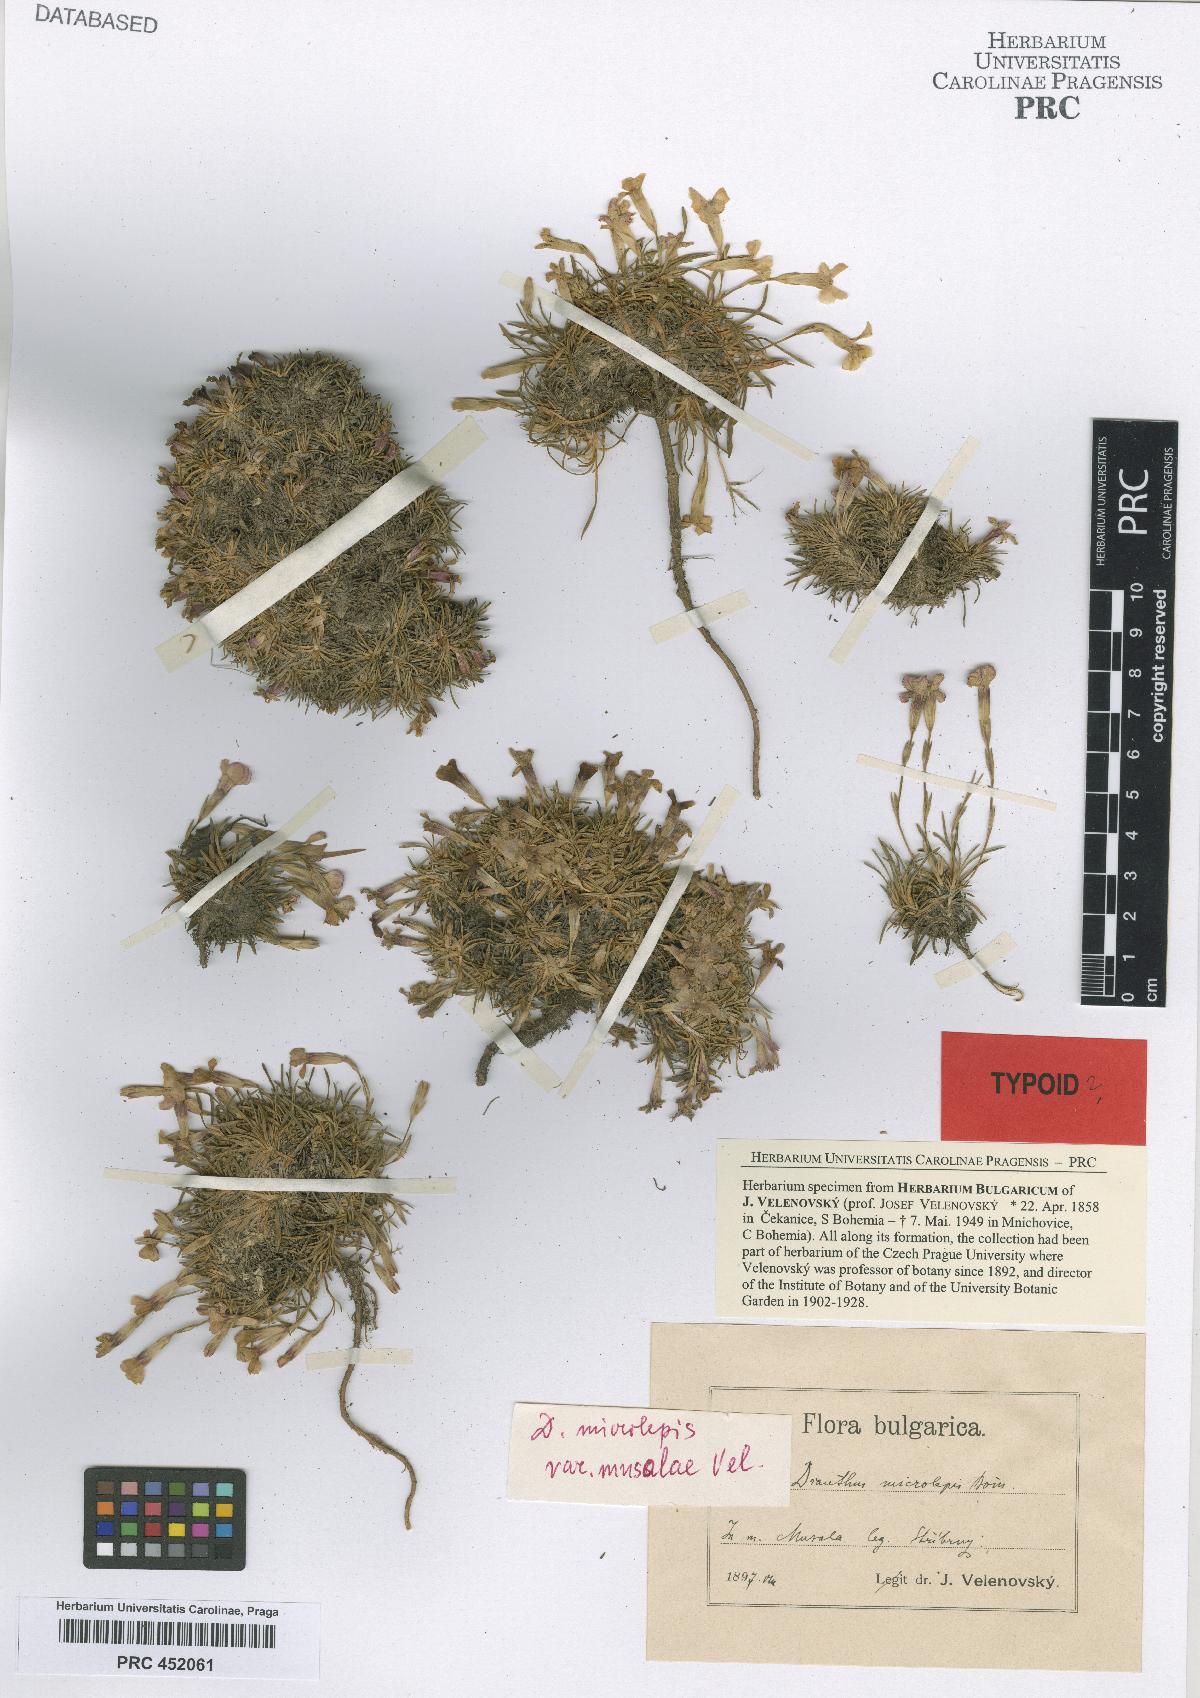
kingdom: Plantae
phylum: Tracheophyta
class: Magnoliopsida
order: Caryophyllales
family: Caryophyllaceae
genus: Dianthus
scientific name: Dianthus micranthus
